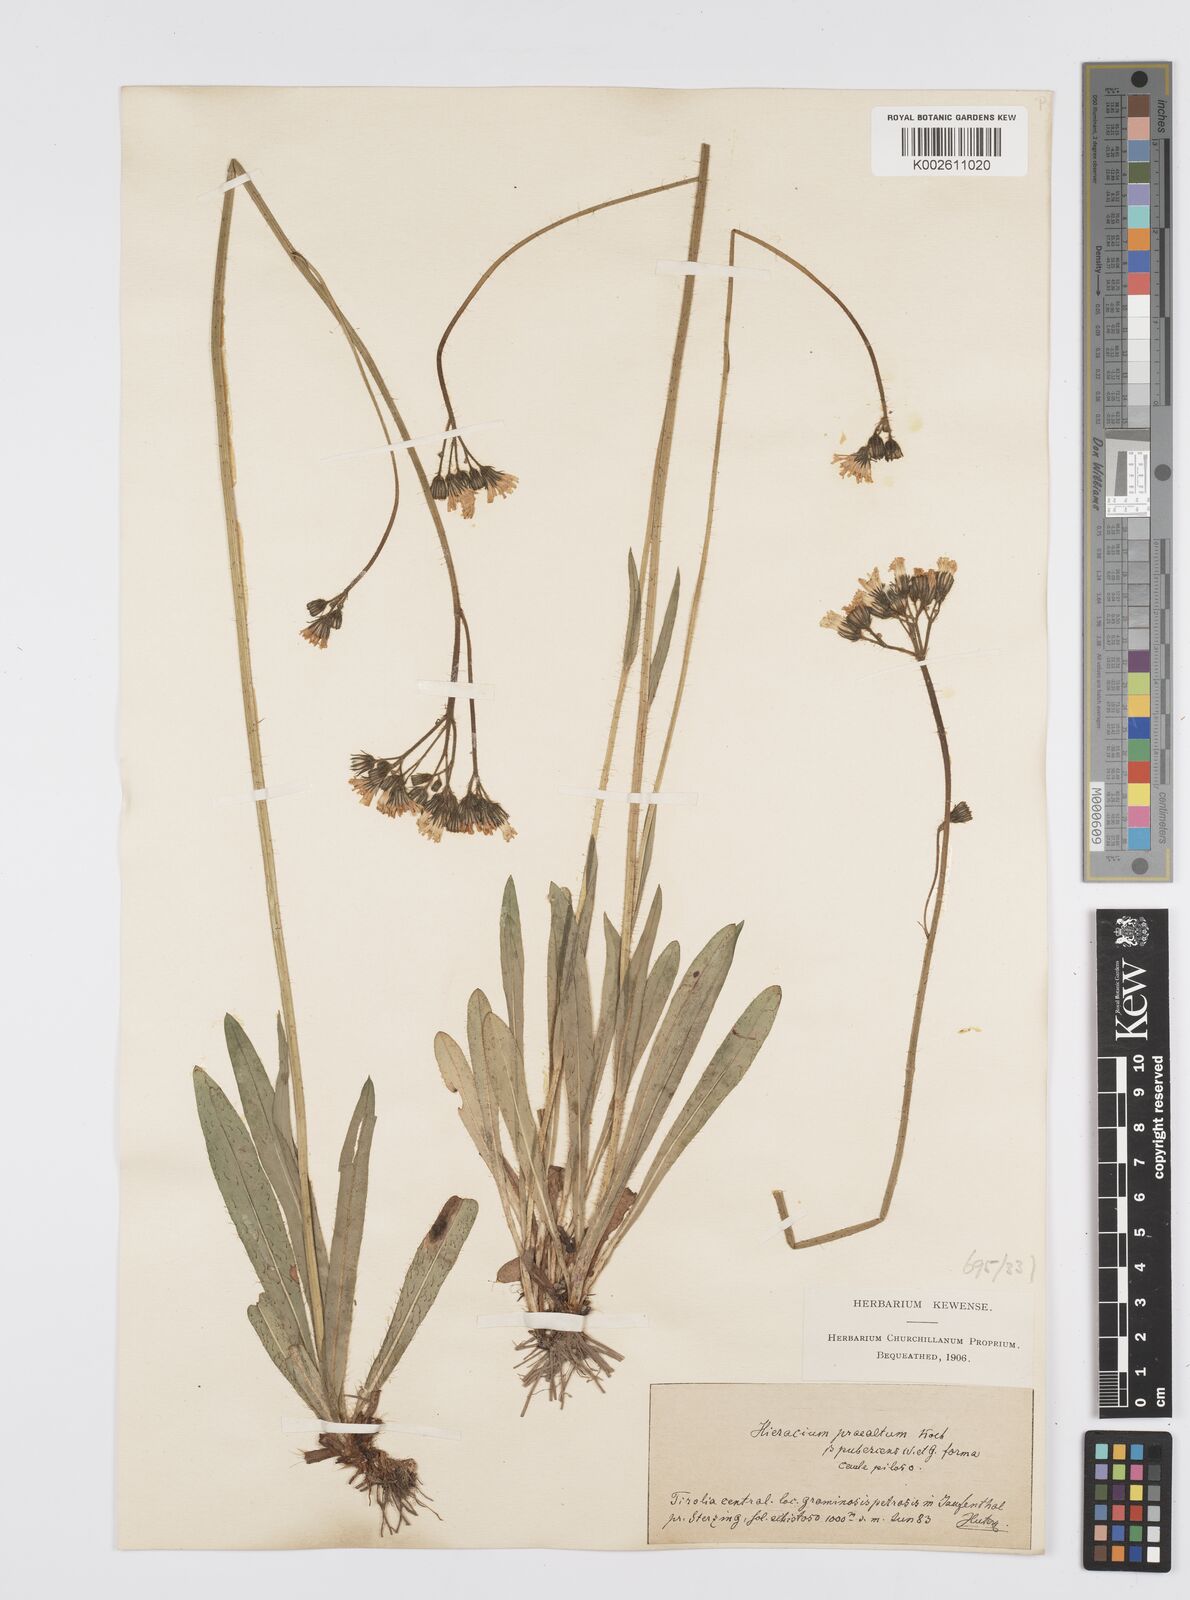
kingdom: Plantae
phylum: Tracheophyta
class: Magnoliopsida
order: Asterales
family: Asteraceae
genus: Pilosella
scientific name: Pilosella piloselloides
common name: Glaucous king-devil
